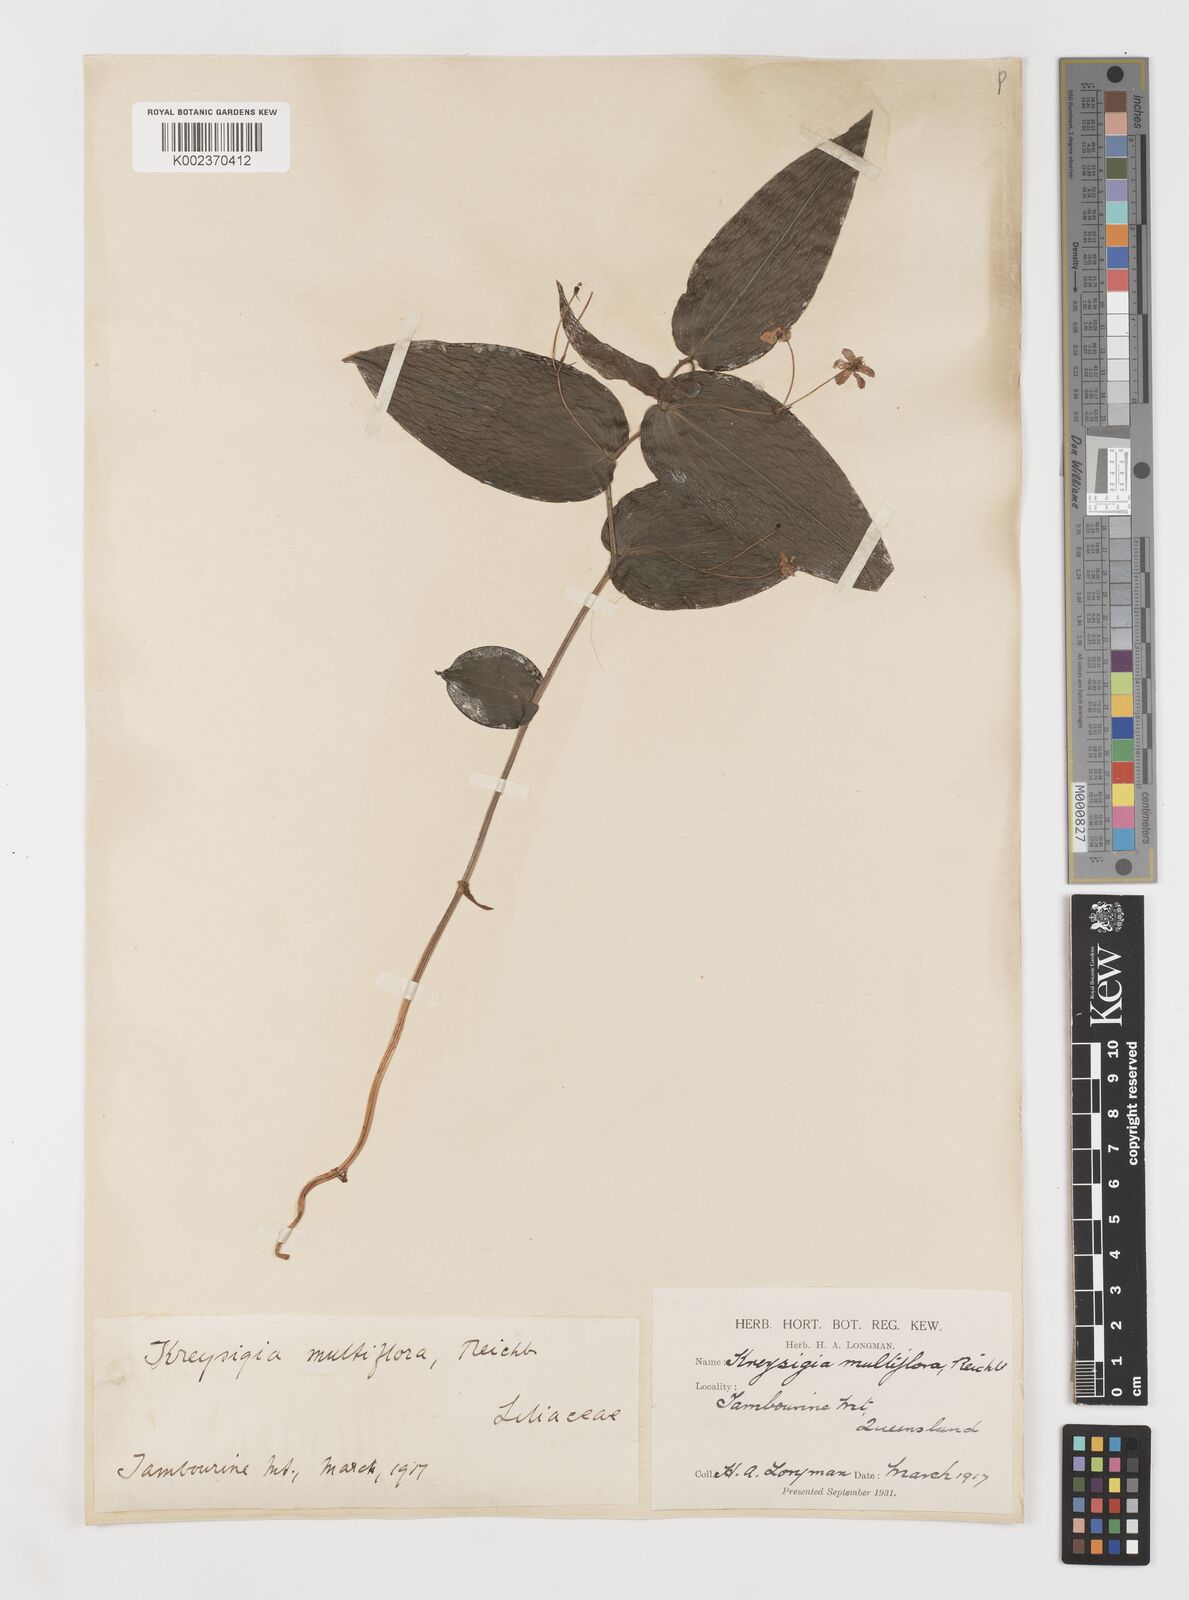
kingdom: Plantae
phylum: Tracheophyta
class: Liliopsida
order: Liliales
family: Colchicaceae
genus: Tripladenia
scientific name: Tripladenia
